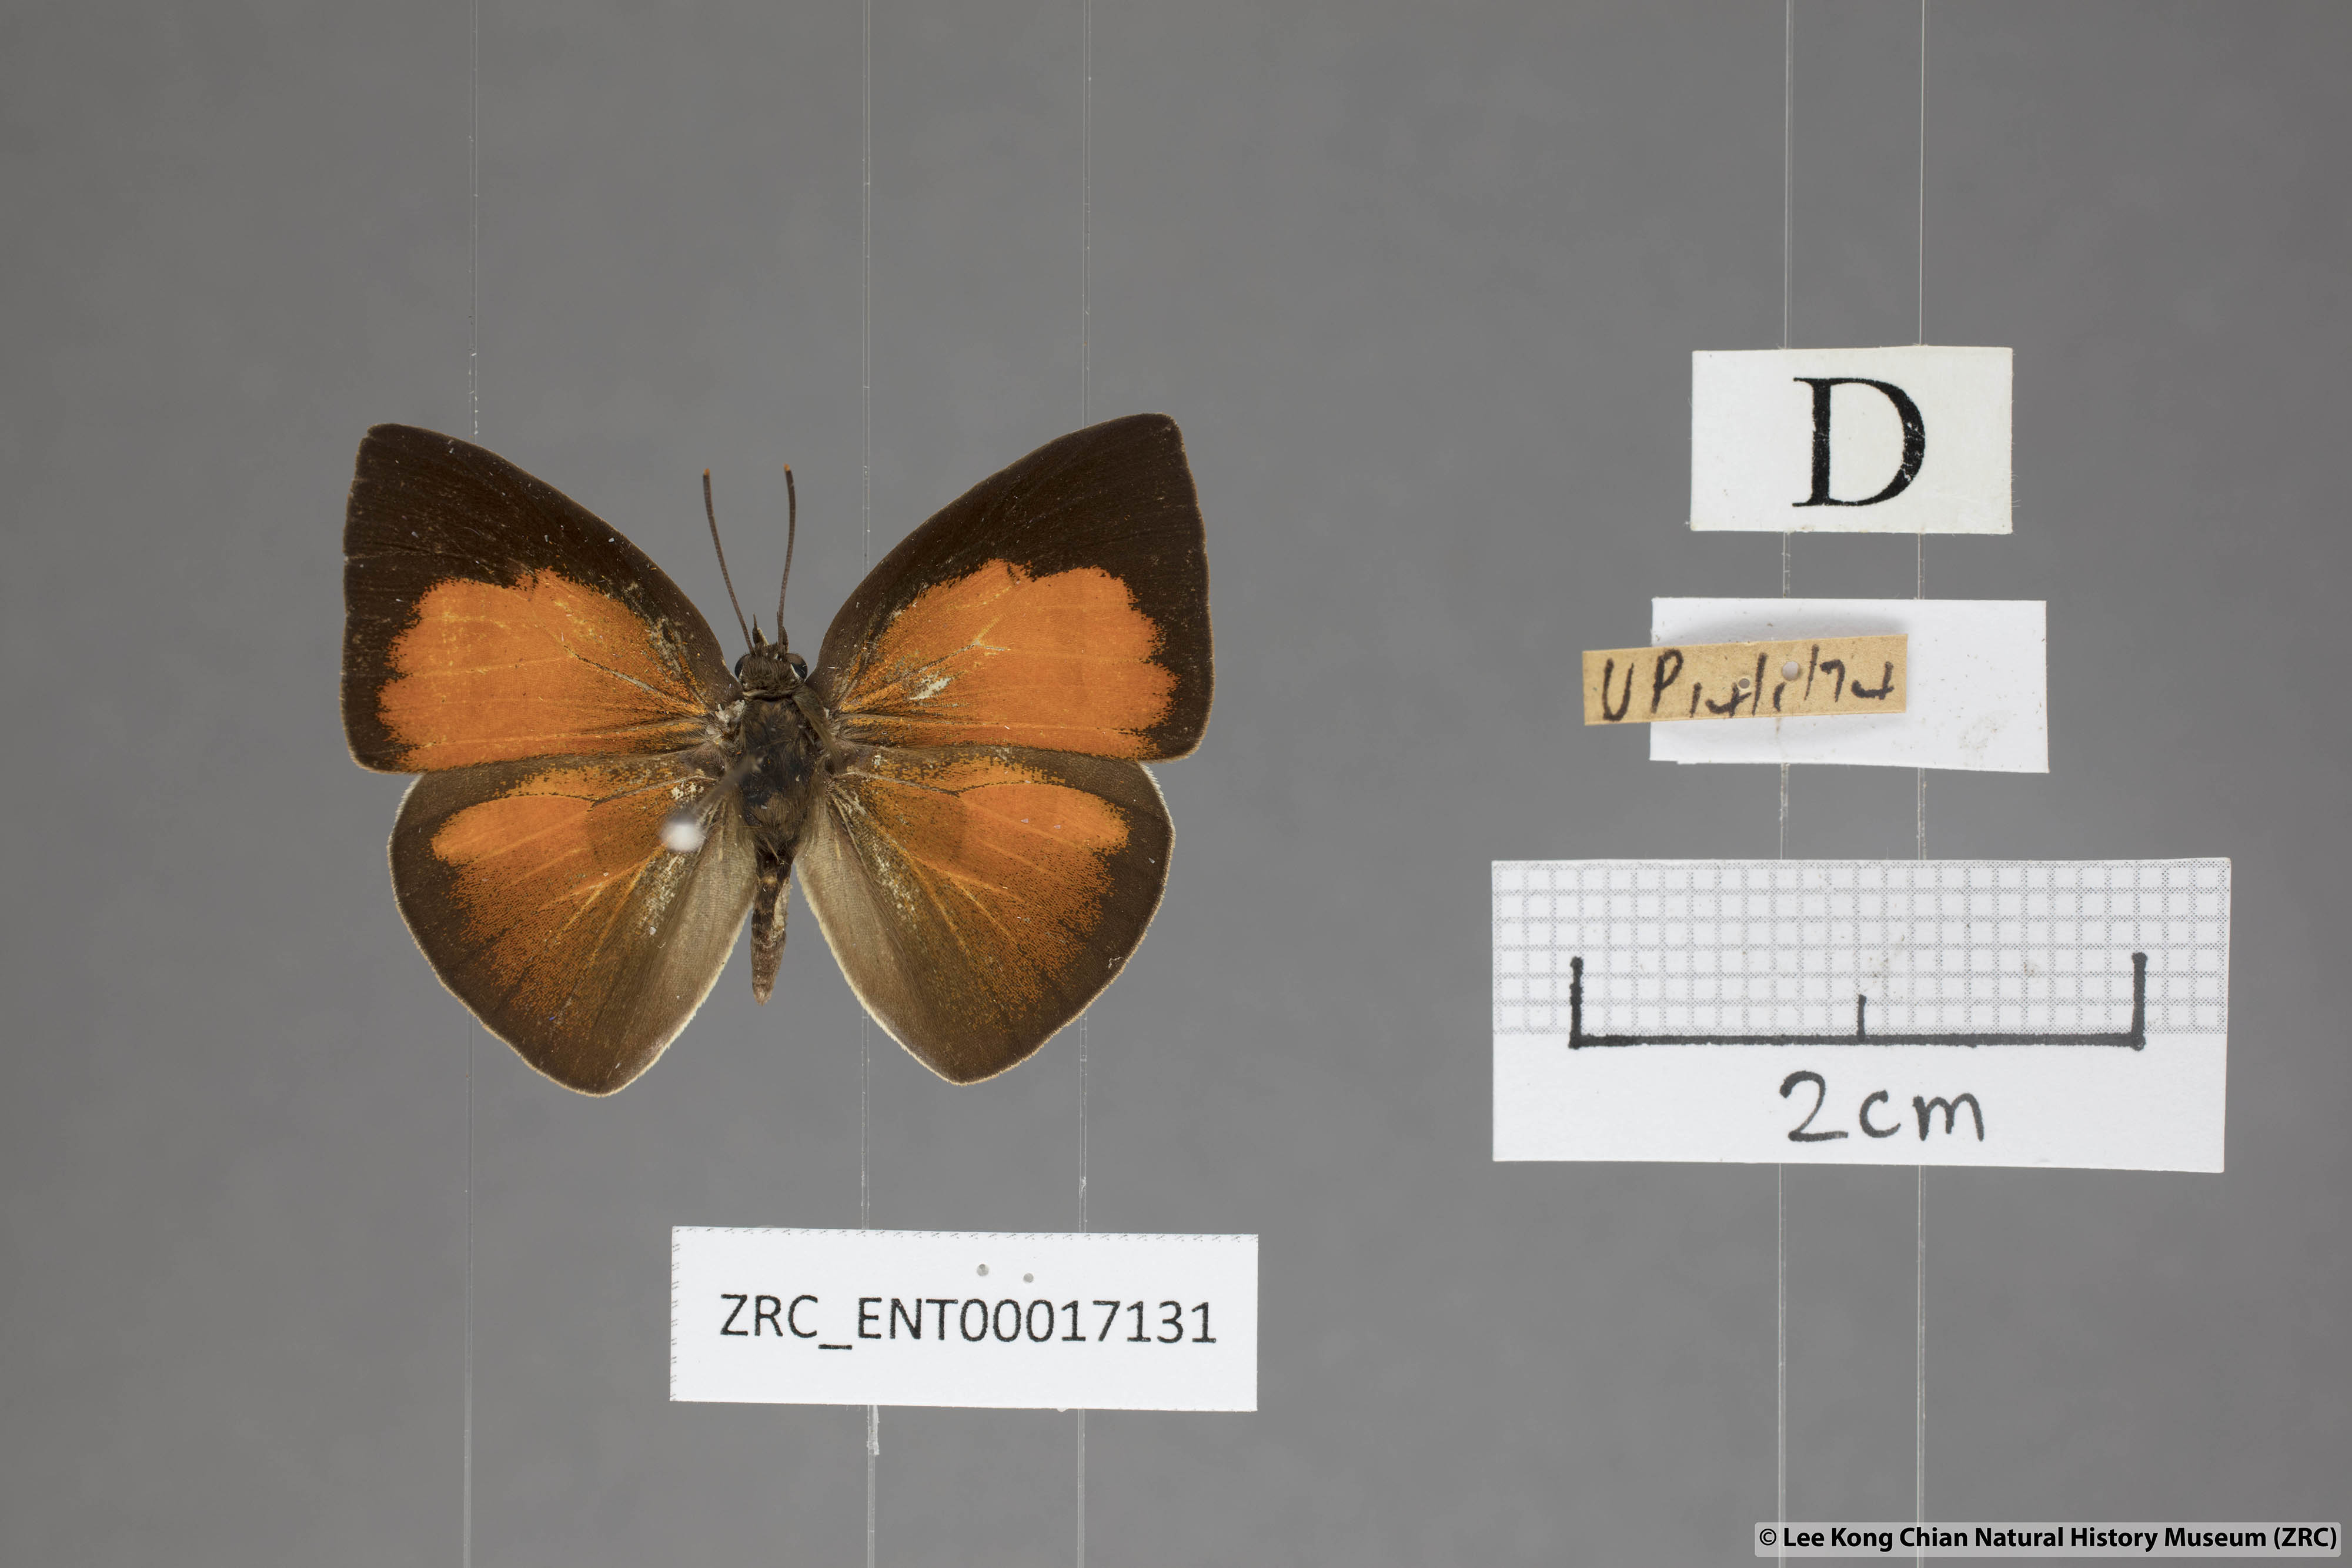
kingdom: Animalia
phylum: Arthropoda
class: Insecta
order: Lepidoptera
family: Lycaenidae
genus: Curetis
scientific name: Curetis insularis
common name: Narrow-banded sunbeam
